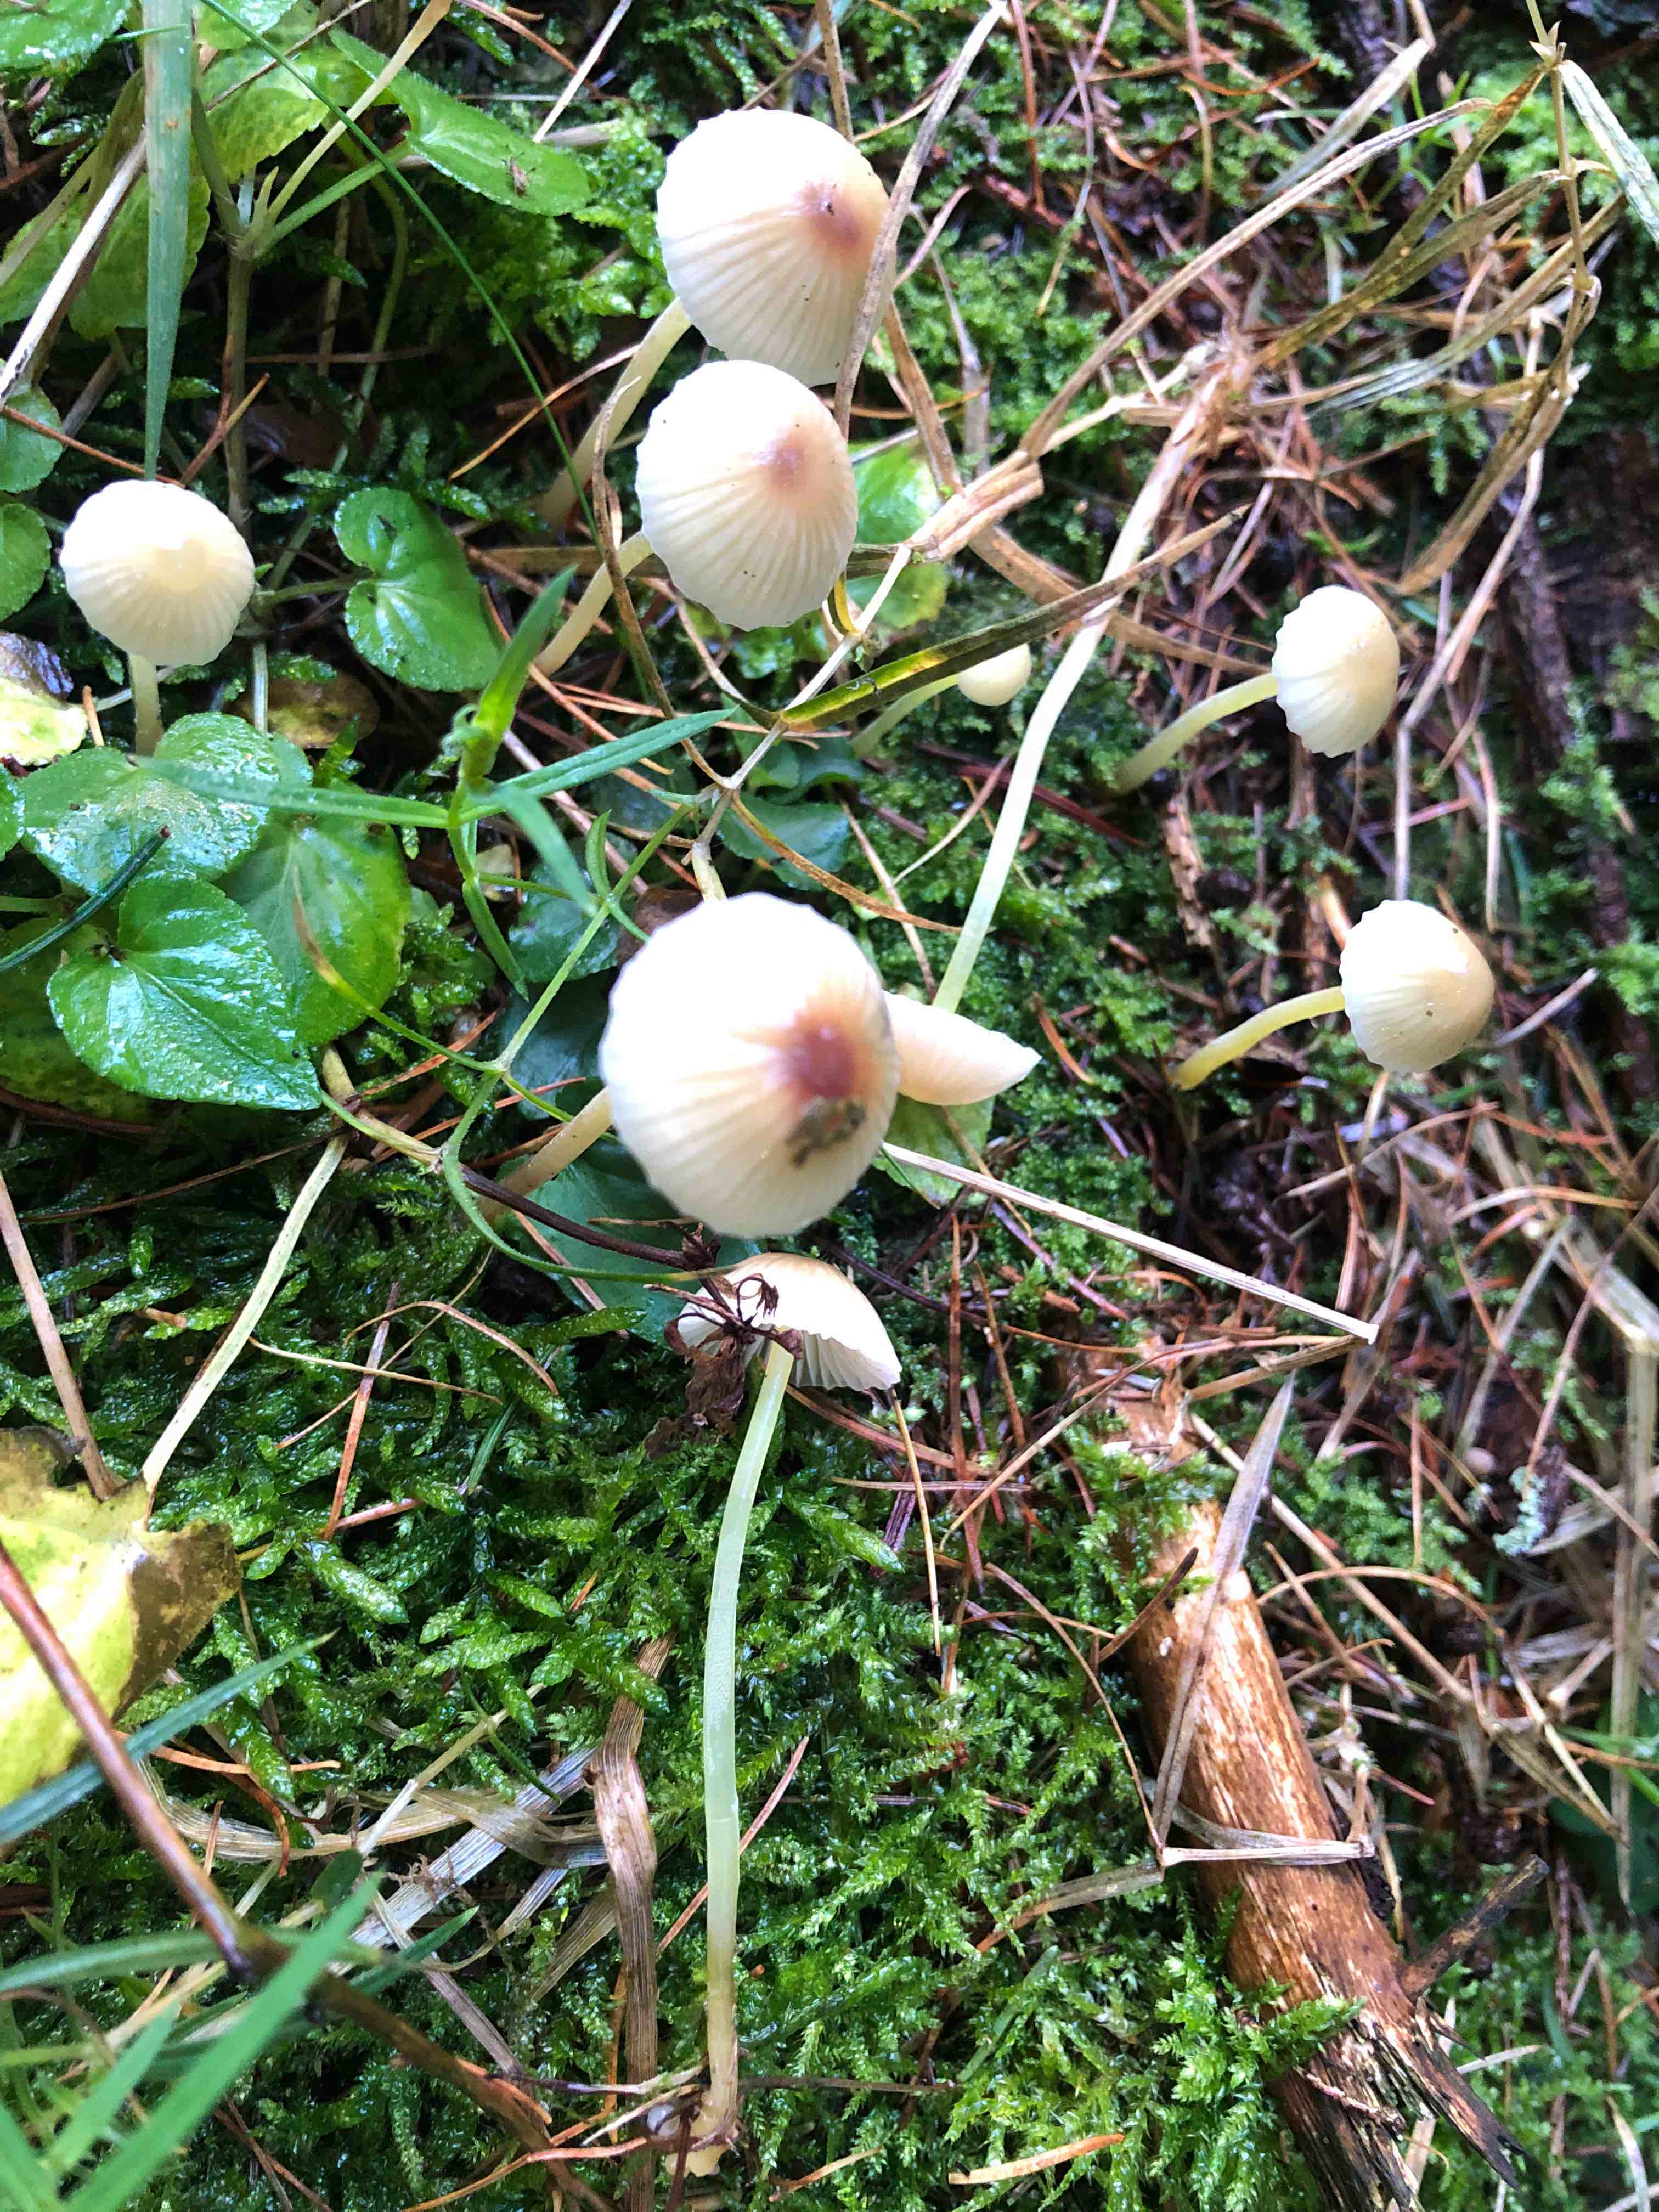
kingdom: Fungi
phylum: Basidiomycota
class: Agaricomycetes
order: Agaricales
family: Mycenaceae
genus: Mycena
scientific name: Mycena epipterygia
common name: gulstokket huesvamp
